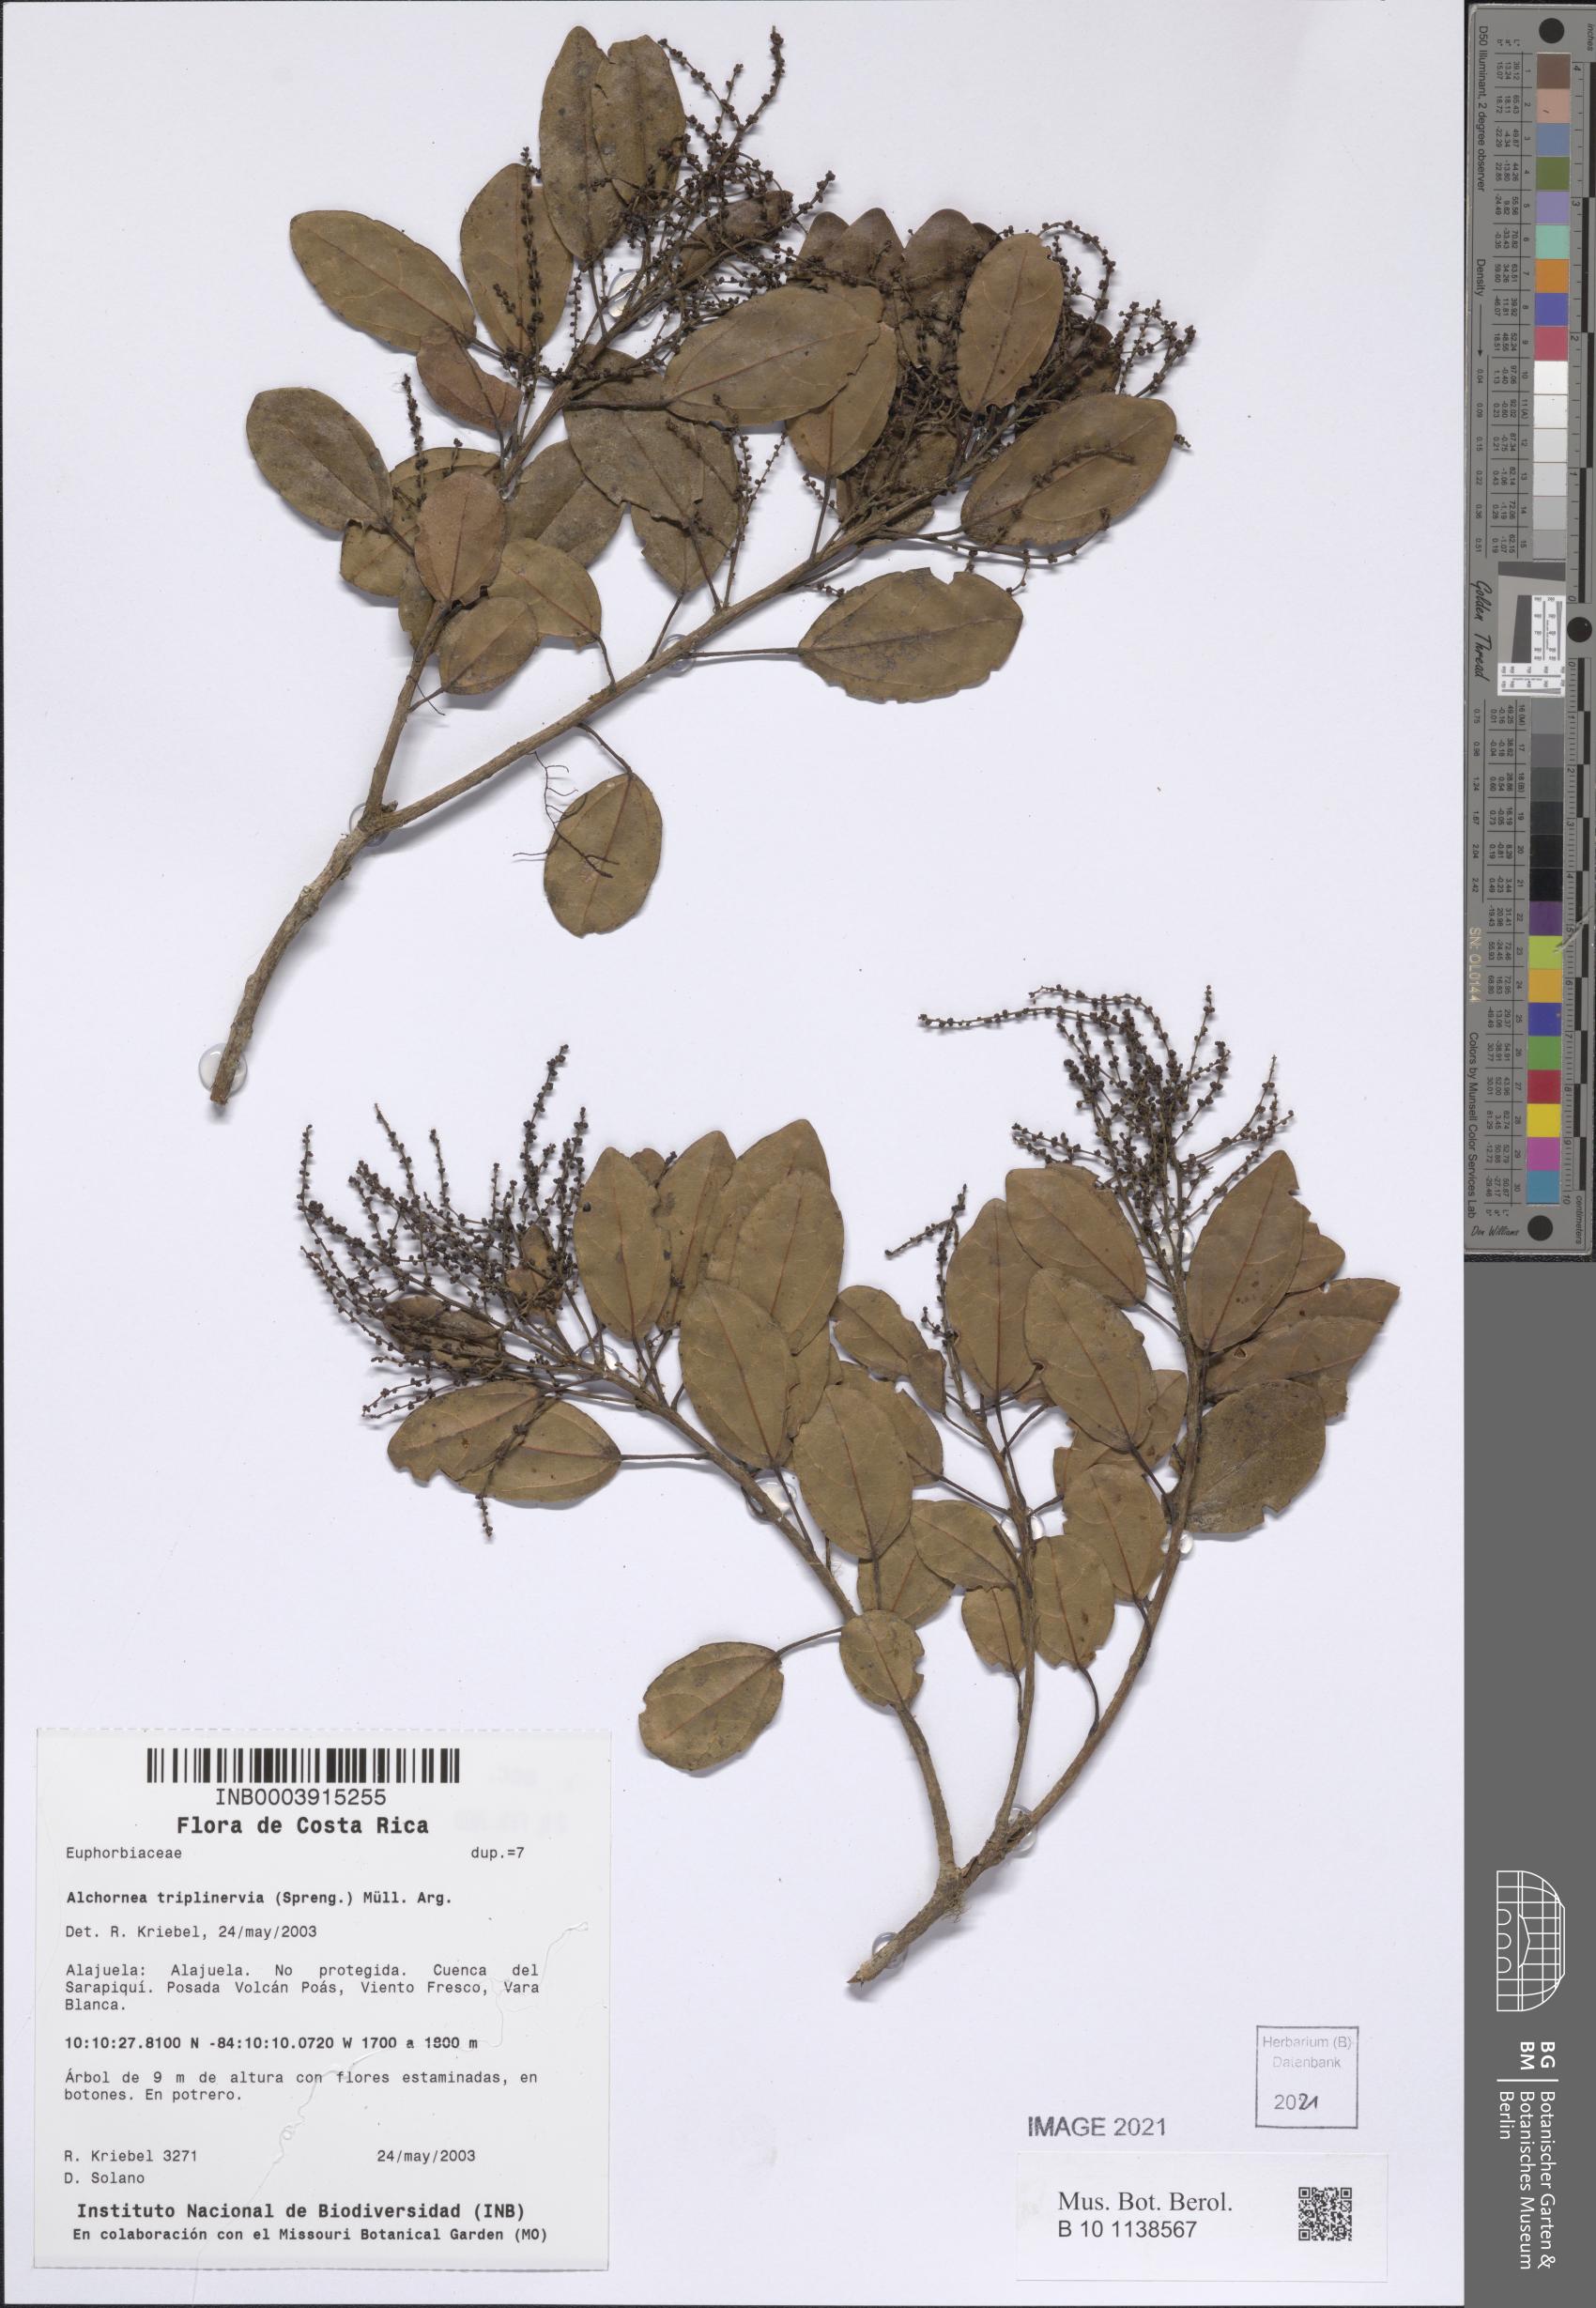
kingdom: Plantae
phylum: Tracheophyta
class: Magnoliopsida
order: Malpighiales
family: Euphorbiaceae
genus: Alchornea
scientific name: Alchornea guatemalensis
